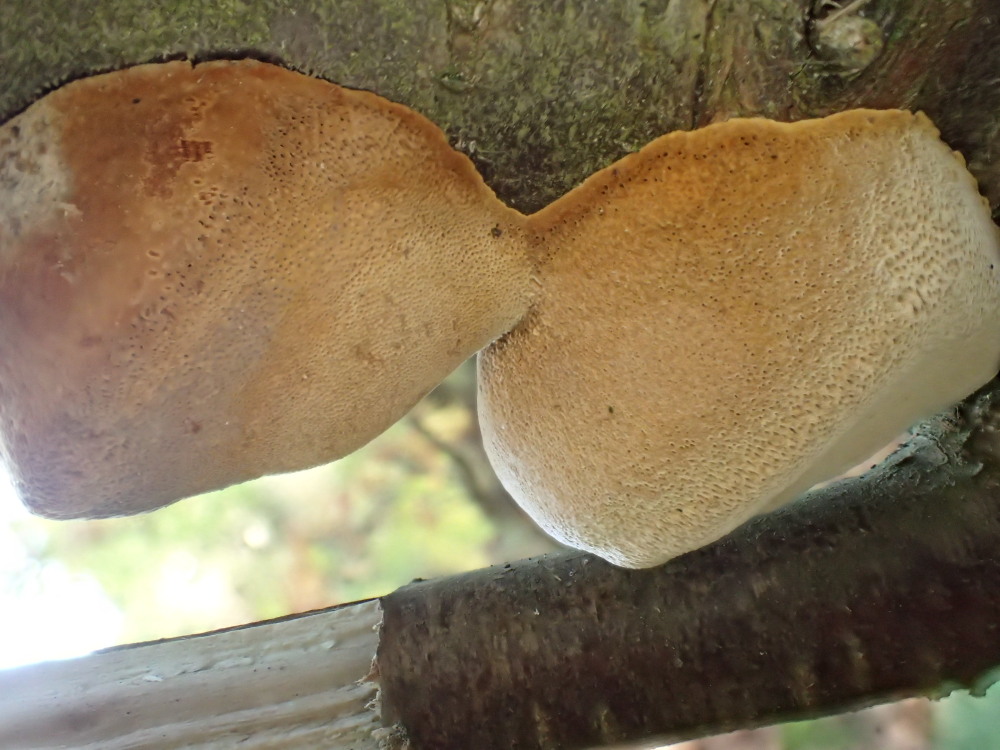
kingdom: Fungi
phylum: Basidiomycota
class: Agaricomycetes
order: Hymenochaetales
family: Hymenochaetaceae
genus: Phellinus
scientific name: Phellinus pomaceus
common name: blomme-ildporesvamp
